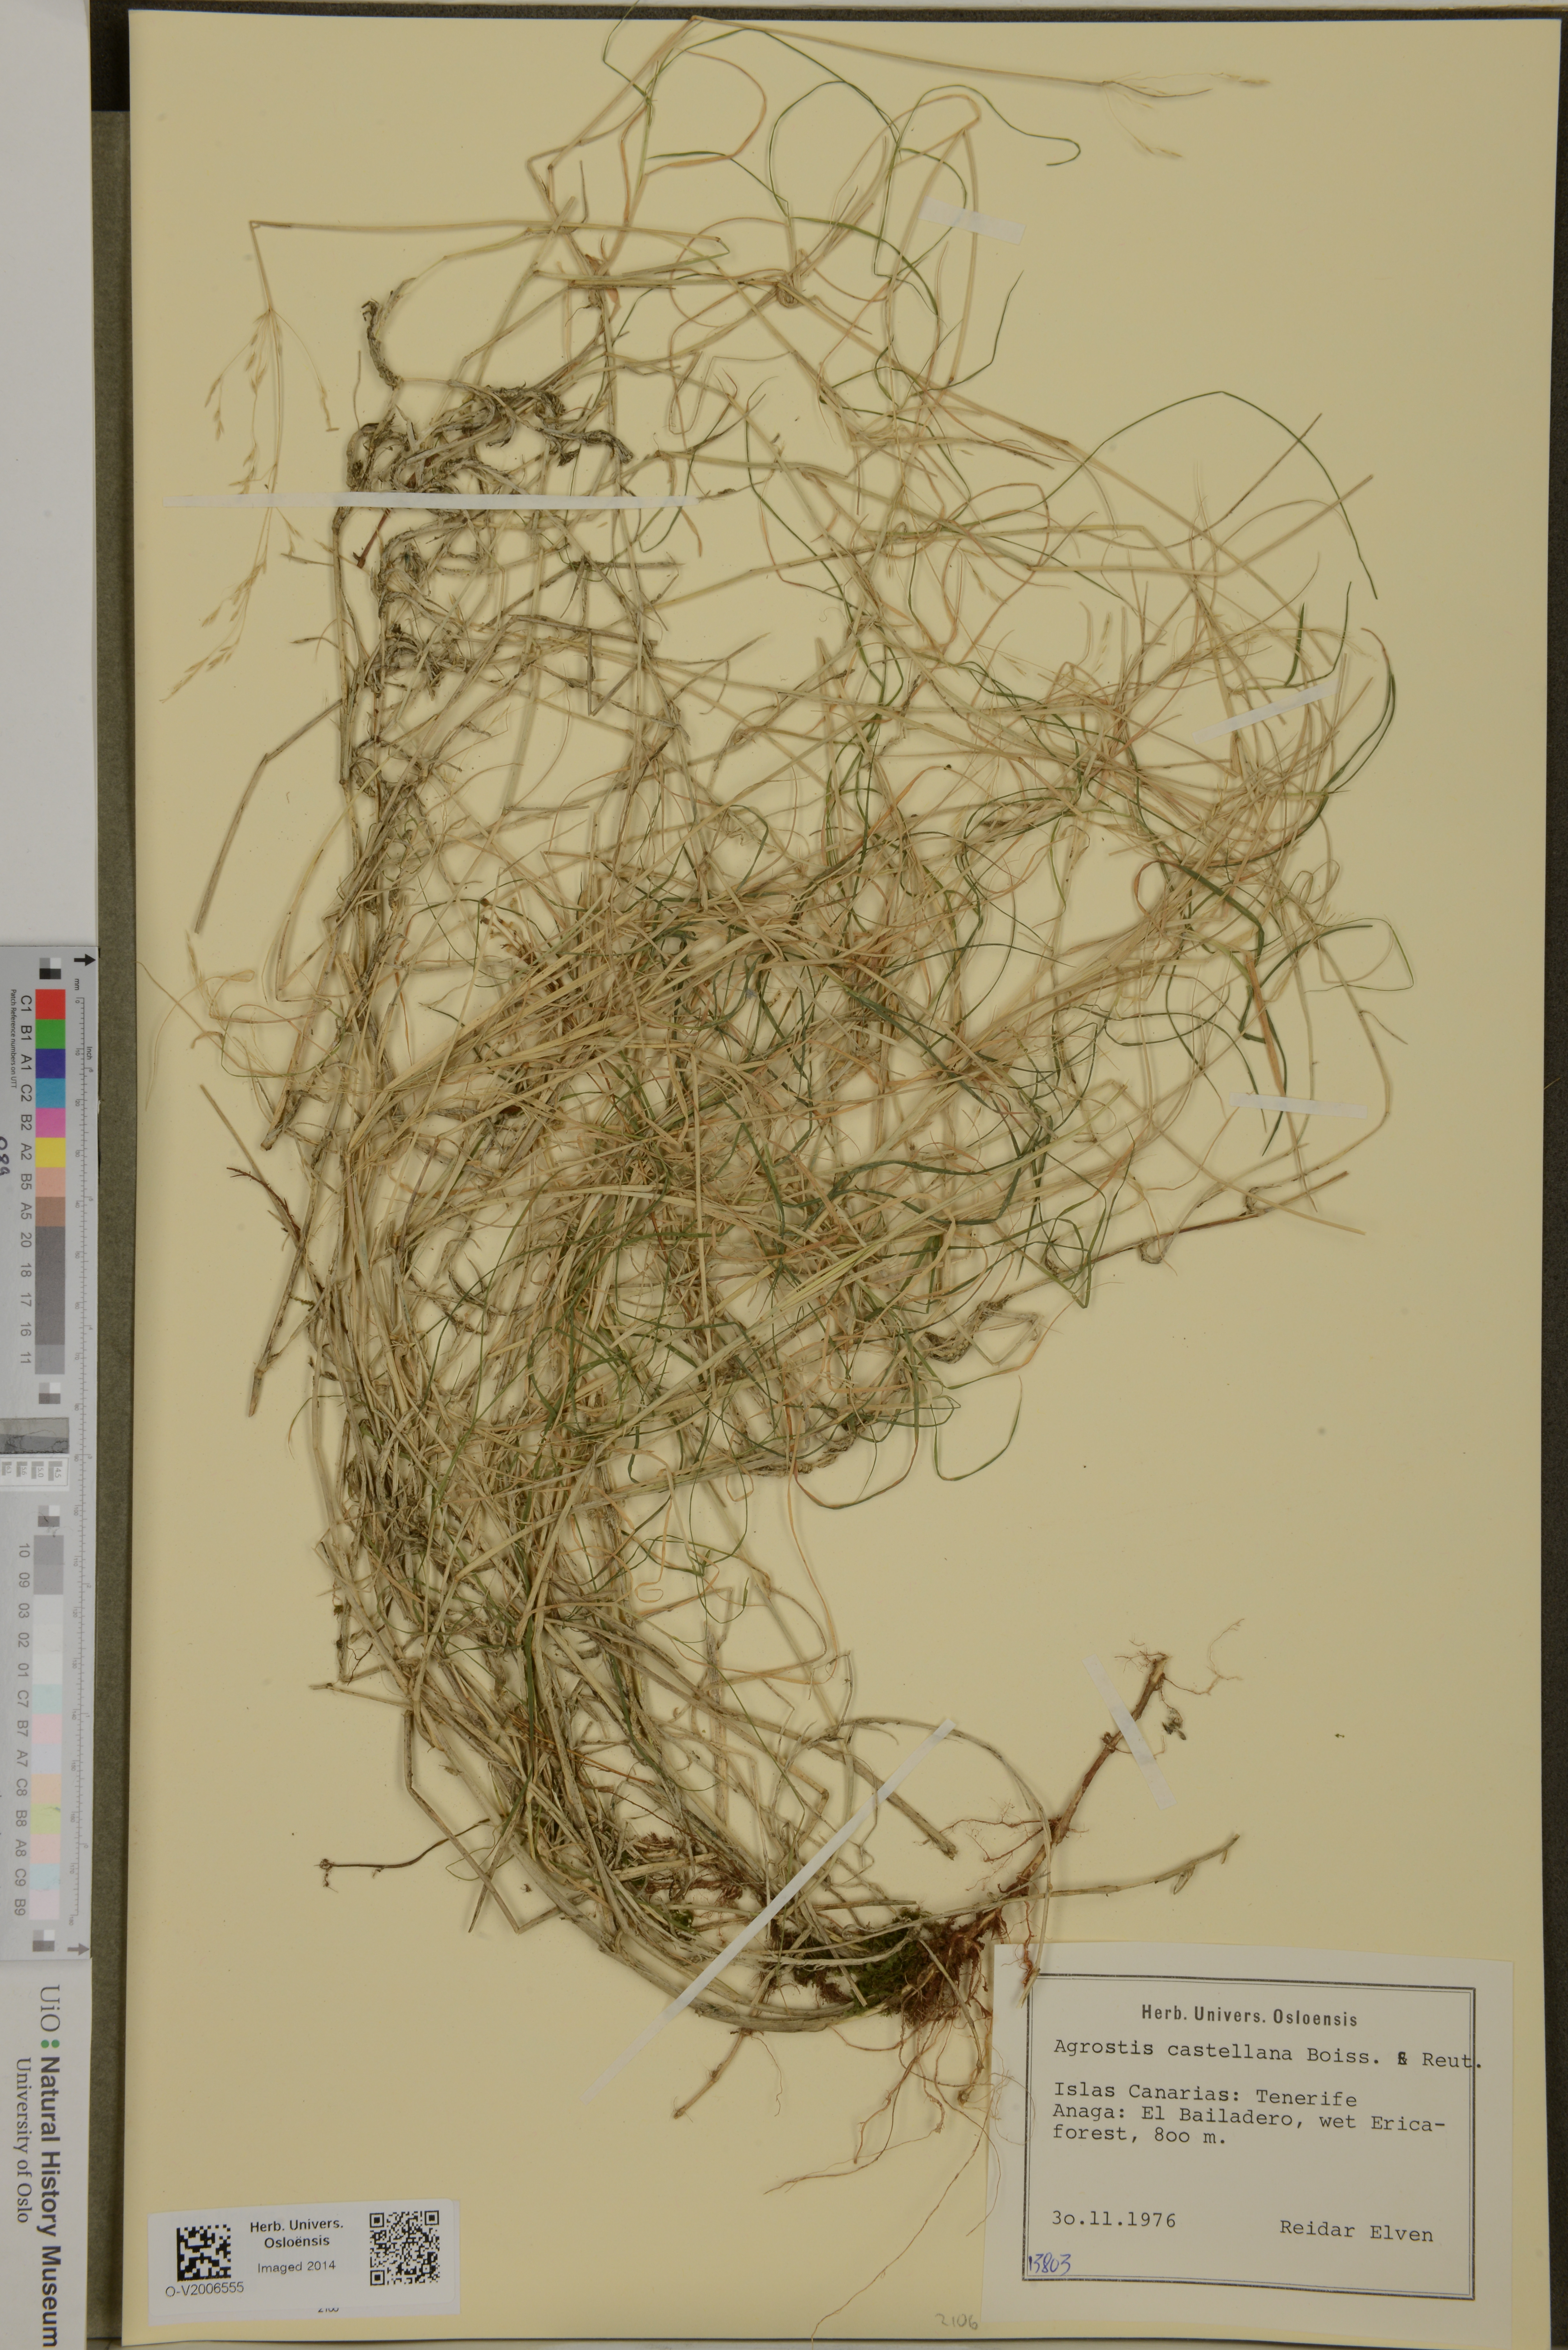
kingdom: Plantae
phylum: Tracheophyta
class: Liliopsida
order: Poales
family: Poaceae
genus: Agrostis
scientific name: Agrostis castellana
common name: Highland bent
